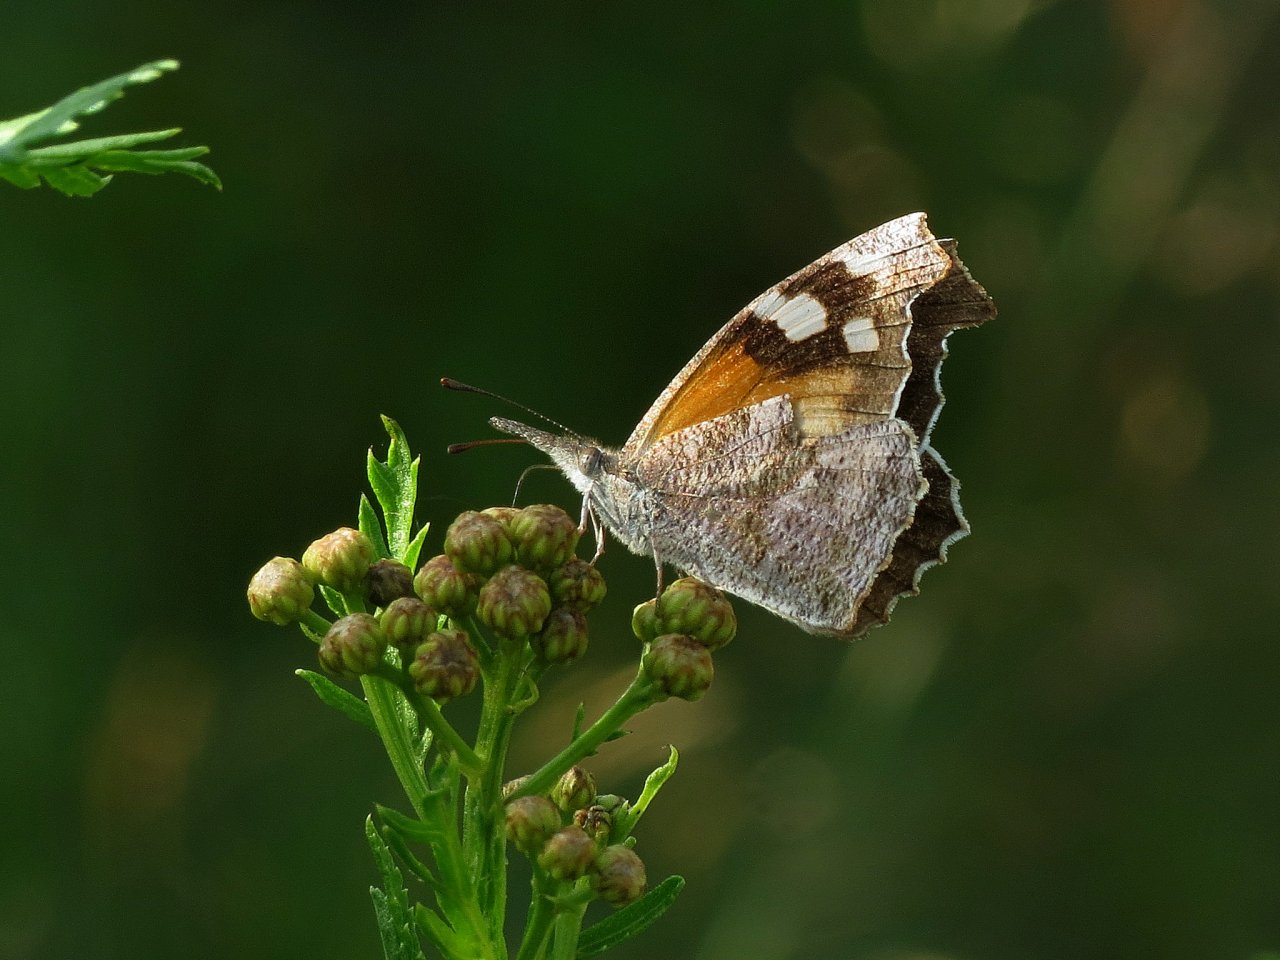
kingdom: Animalia
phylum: Arthropoda
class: Insecta
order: Lepidoptera
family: Nymphalidae
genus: Libytheana
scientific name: Libytheana carinenta
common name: American Snout
